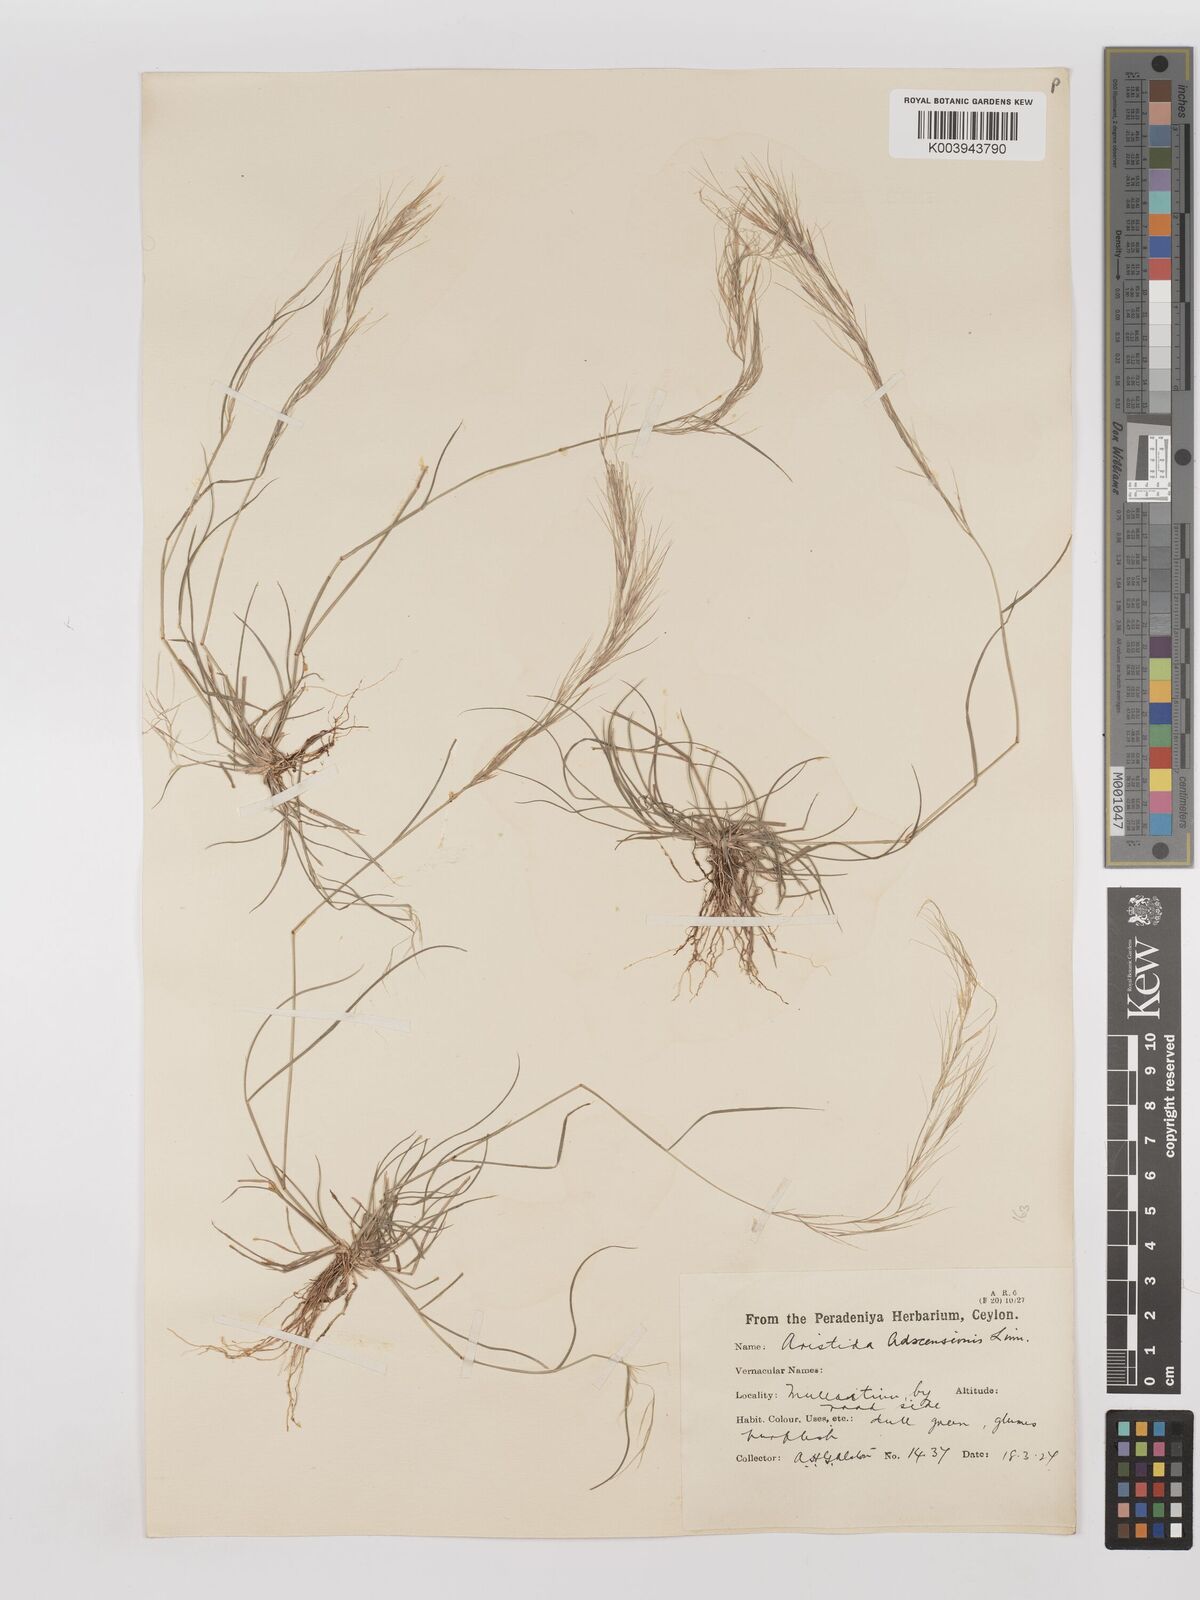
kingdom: Plantae
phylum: Tracheophyta
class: Liliopsida
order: Poales
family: Poaceae
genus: Aristida
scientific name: Aristida adscensionis
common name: Sixweeks threeawn
